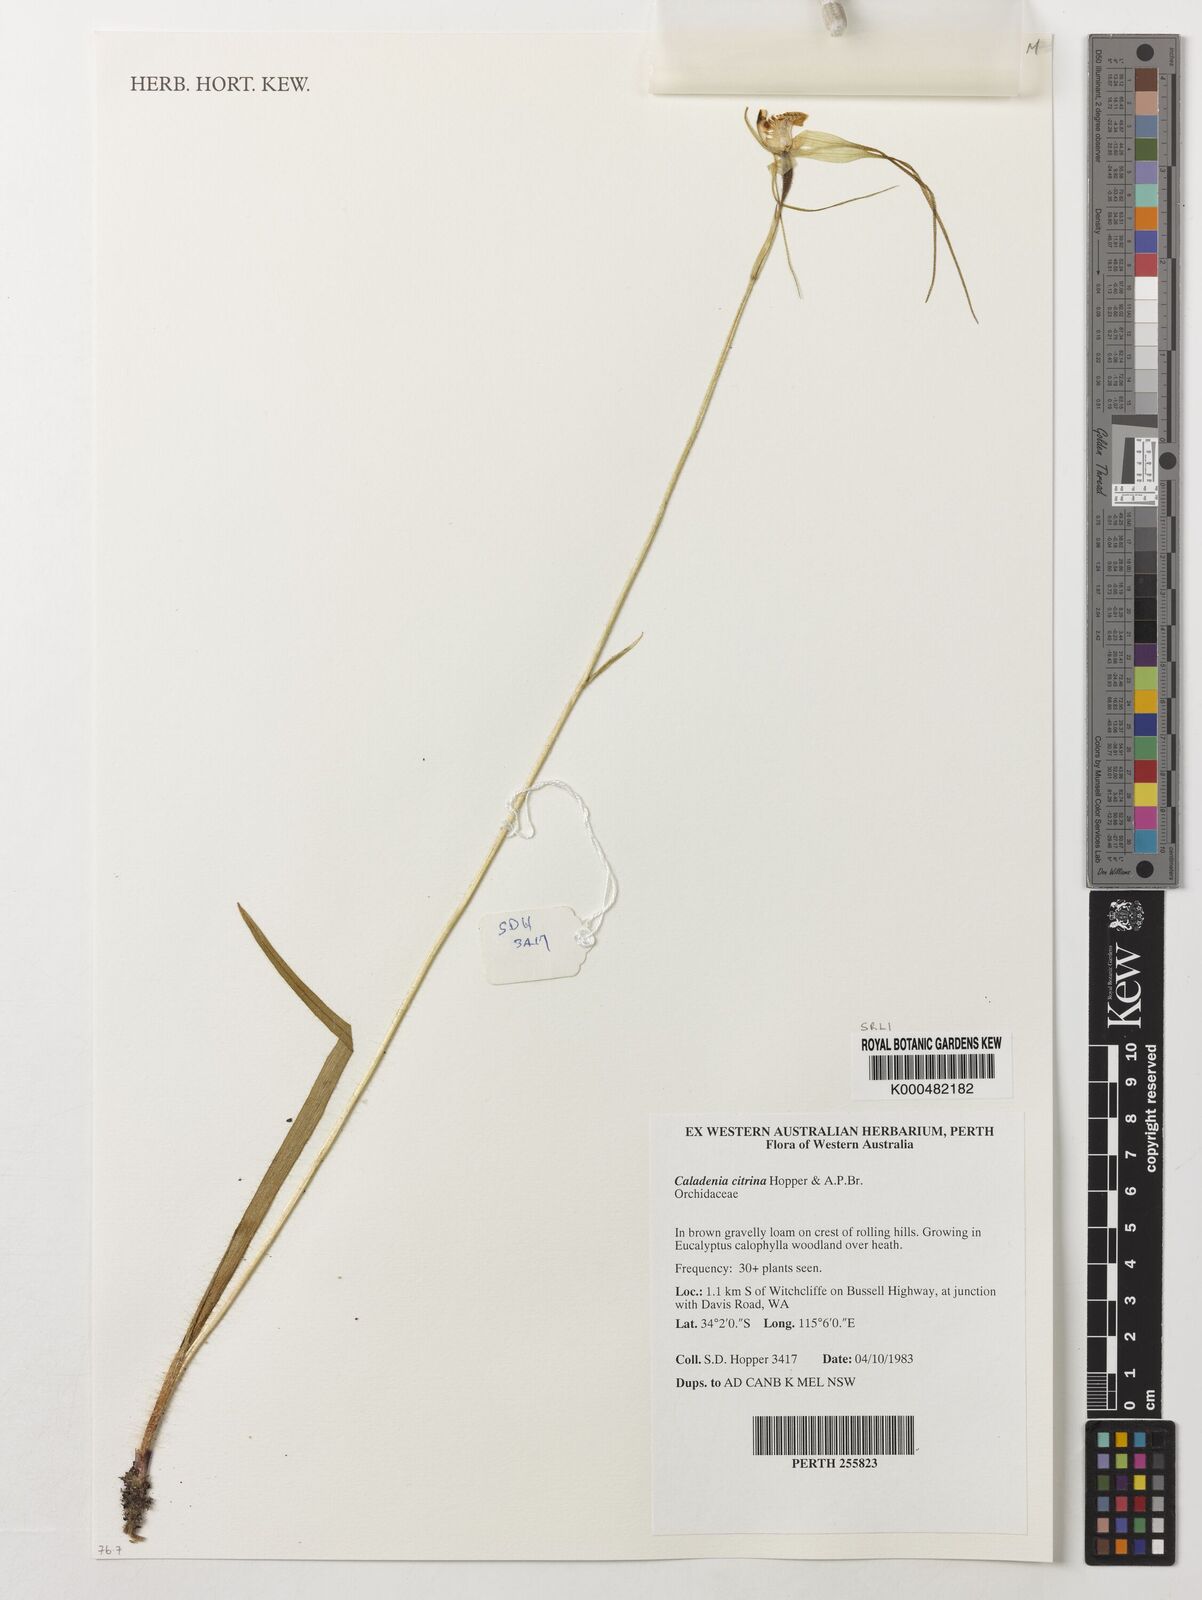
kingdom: Plantae
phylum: Tracheophyta
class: Liliopsida
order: Asparagales
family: Orchidaceae
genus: Caladenia
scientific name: Caladenia
